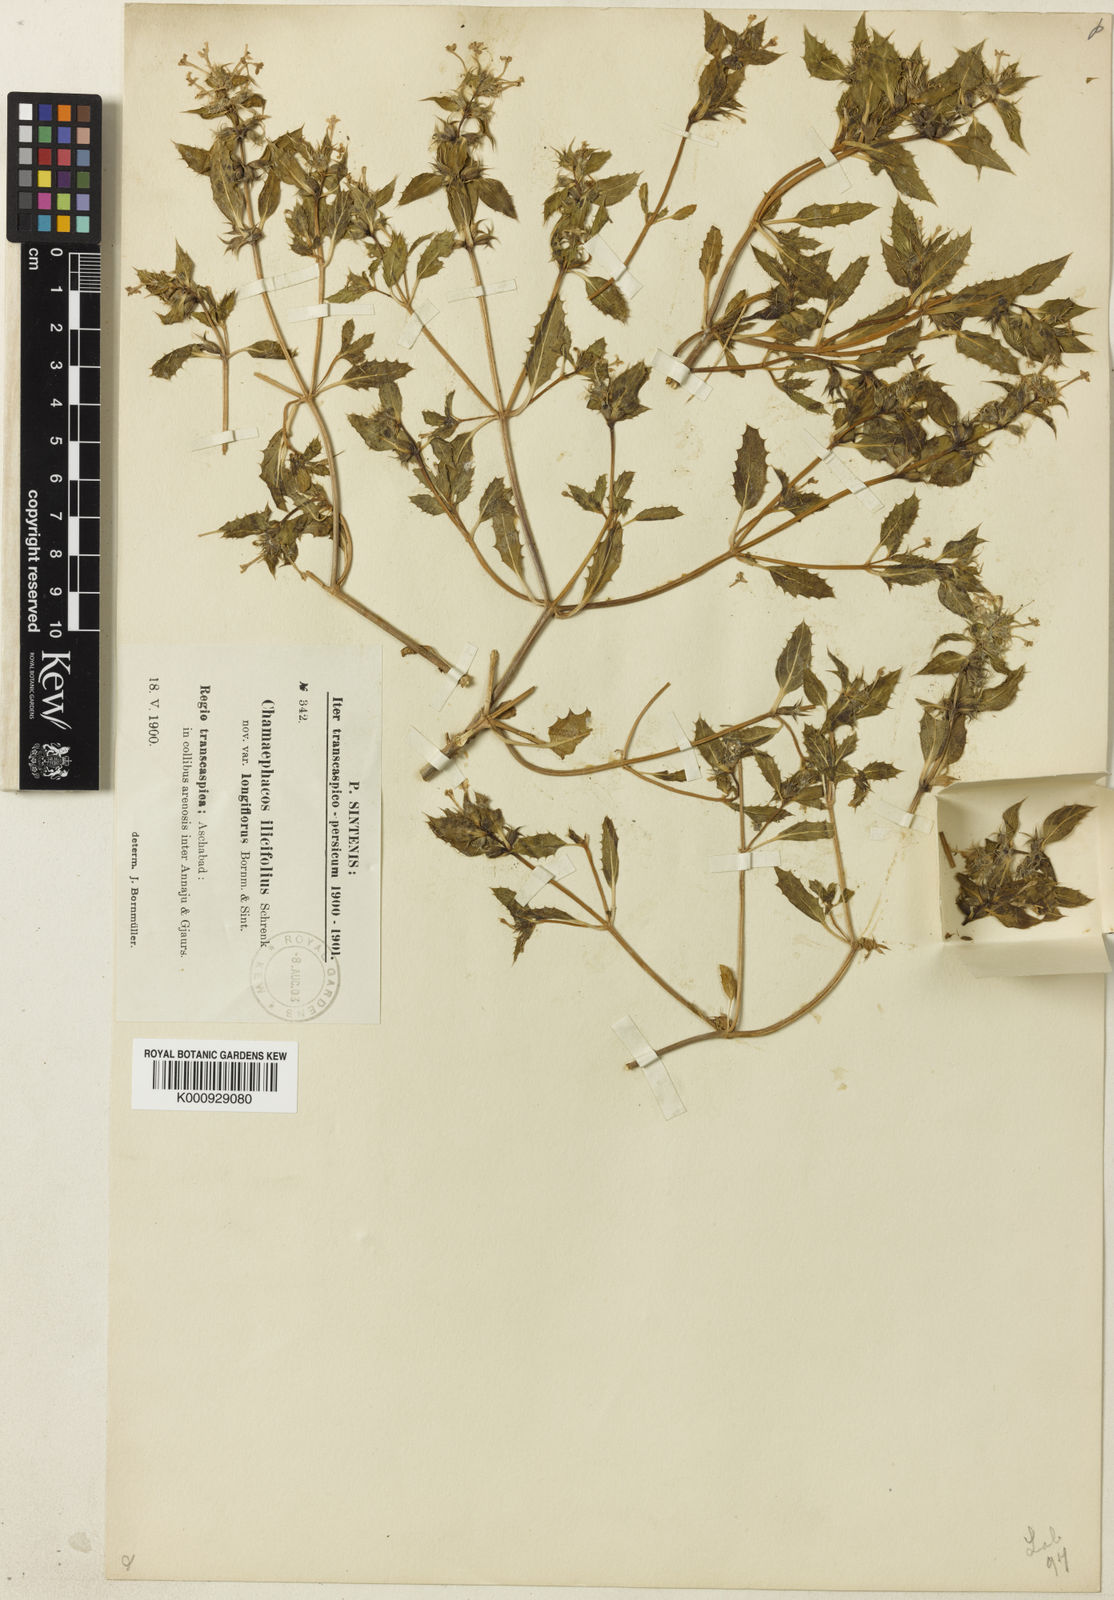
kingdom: Plantae
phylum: Tracheophyta
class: Magnoliopsida
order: Lamiales
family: Lamiaceae
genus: Chamaesphacos
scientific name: Chamaesphacos ilicifolius
